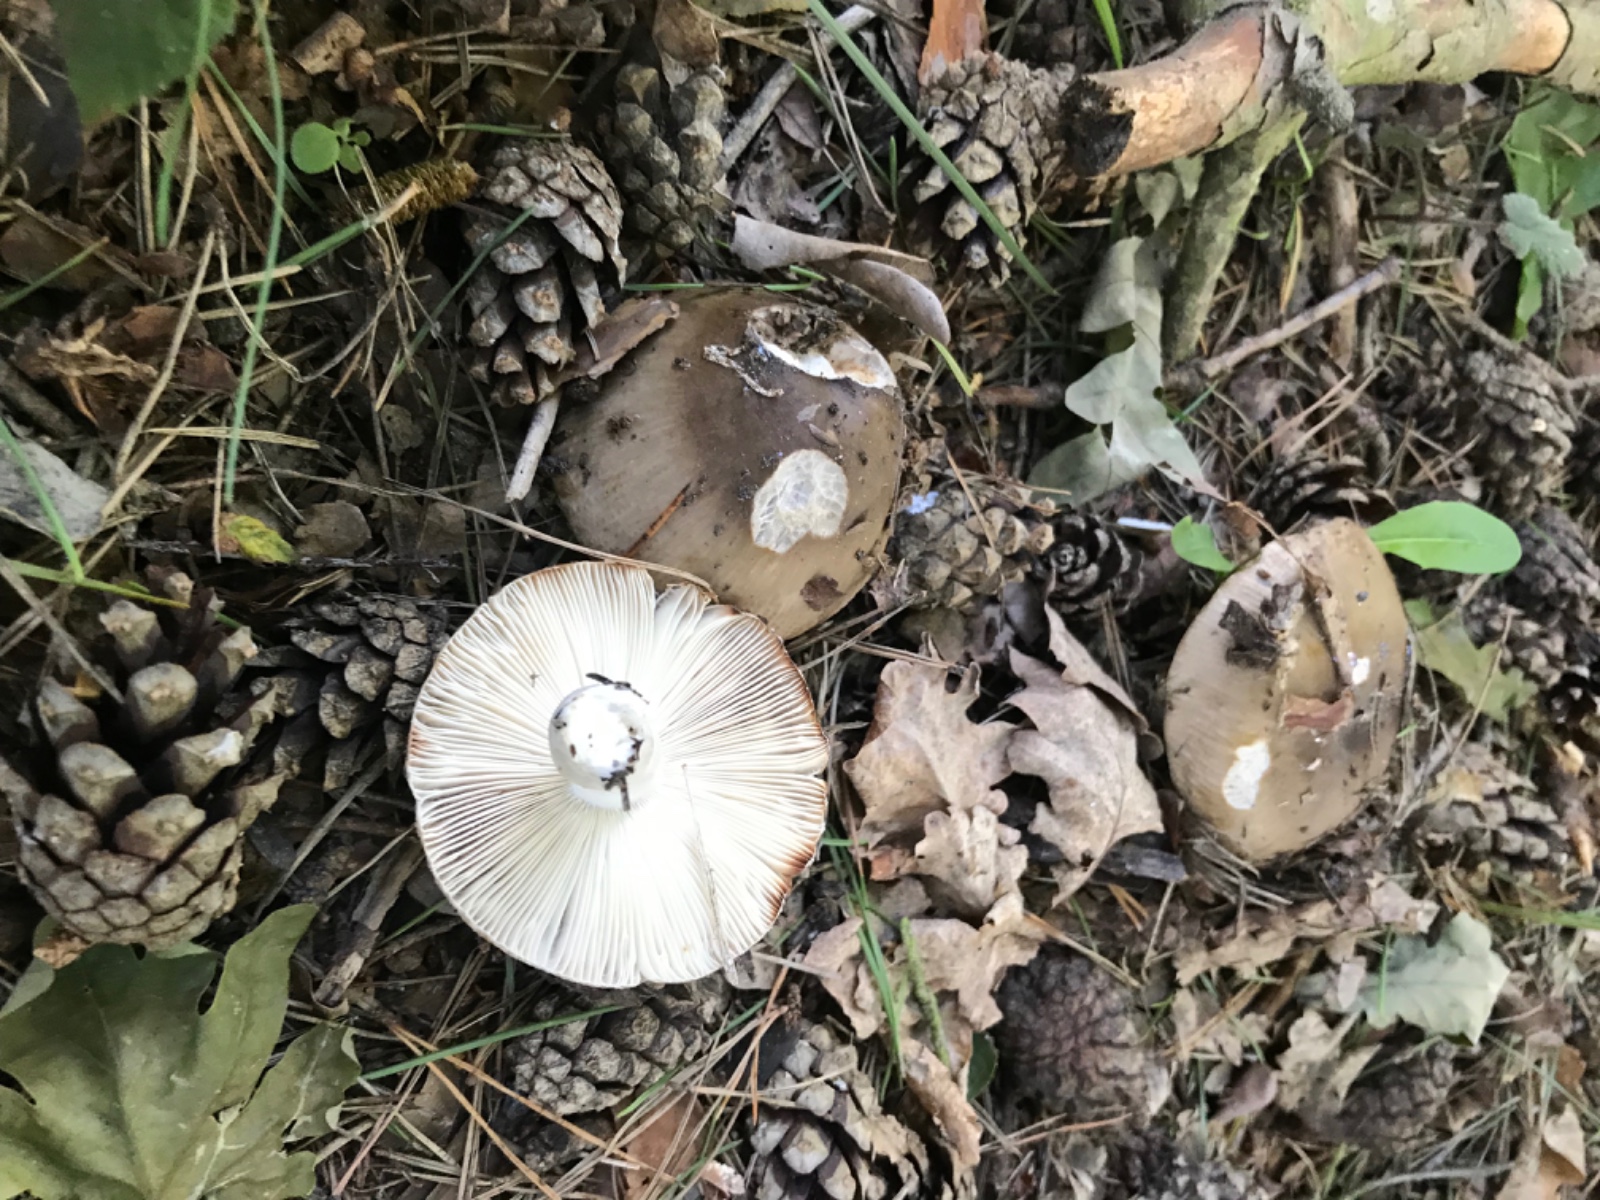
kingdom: Fungi
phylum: Basidiomycota
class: Agaricomycetes
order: Russulales
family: Russulaceae
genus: Russula
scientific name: Russula
